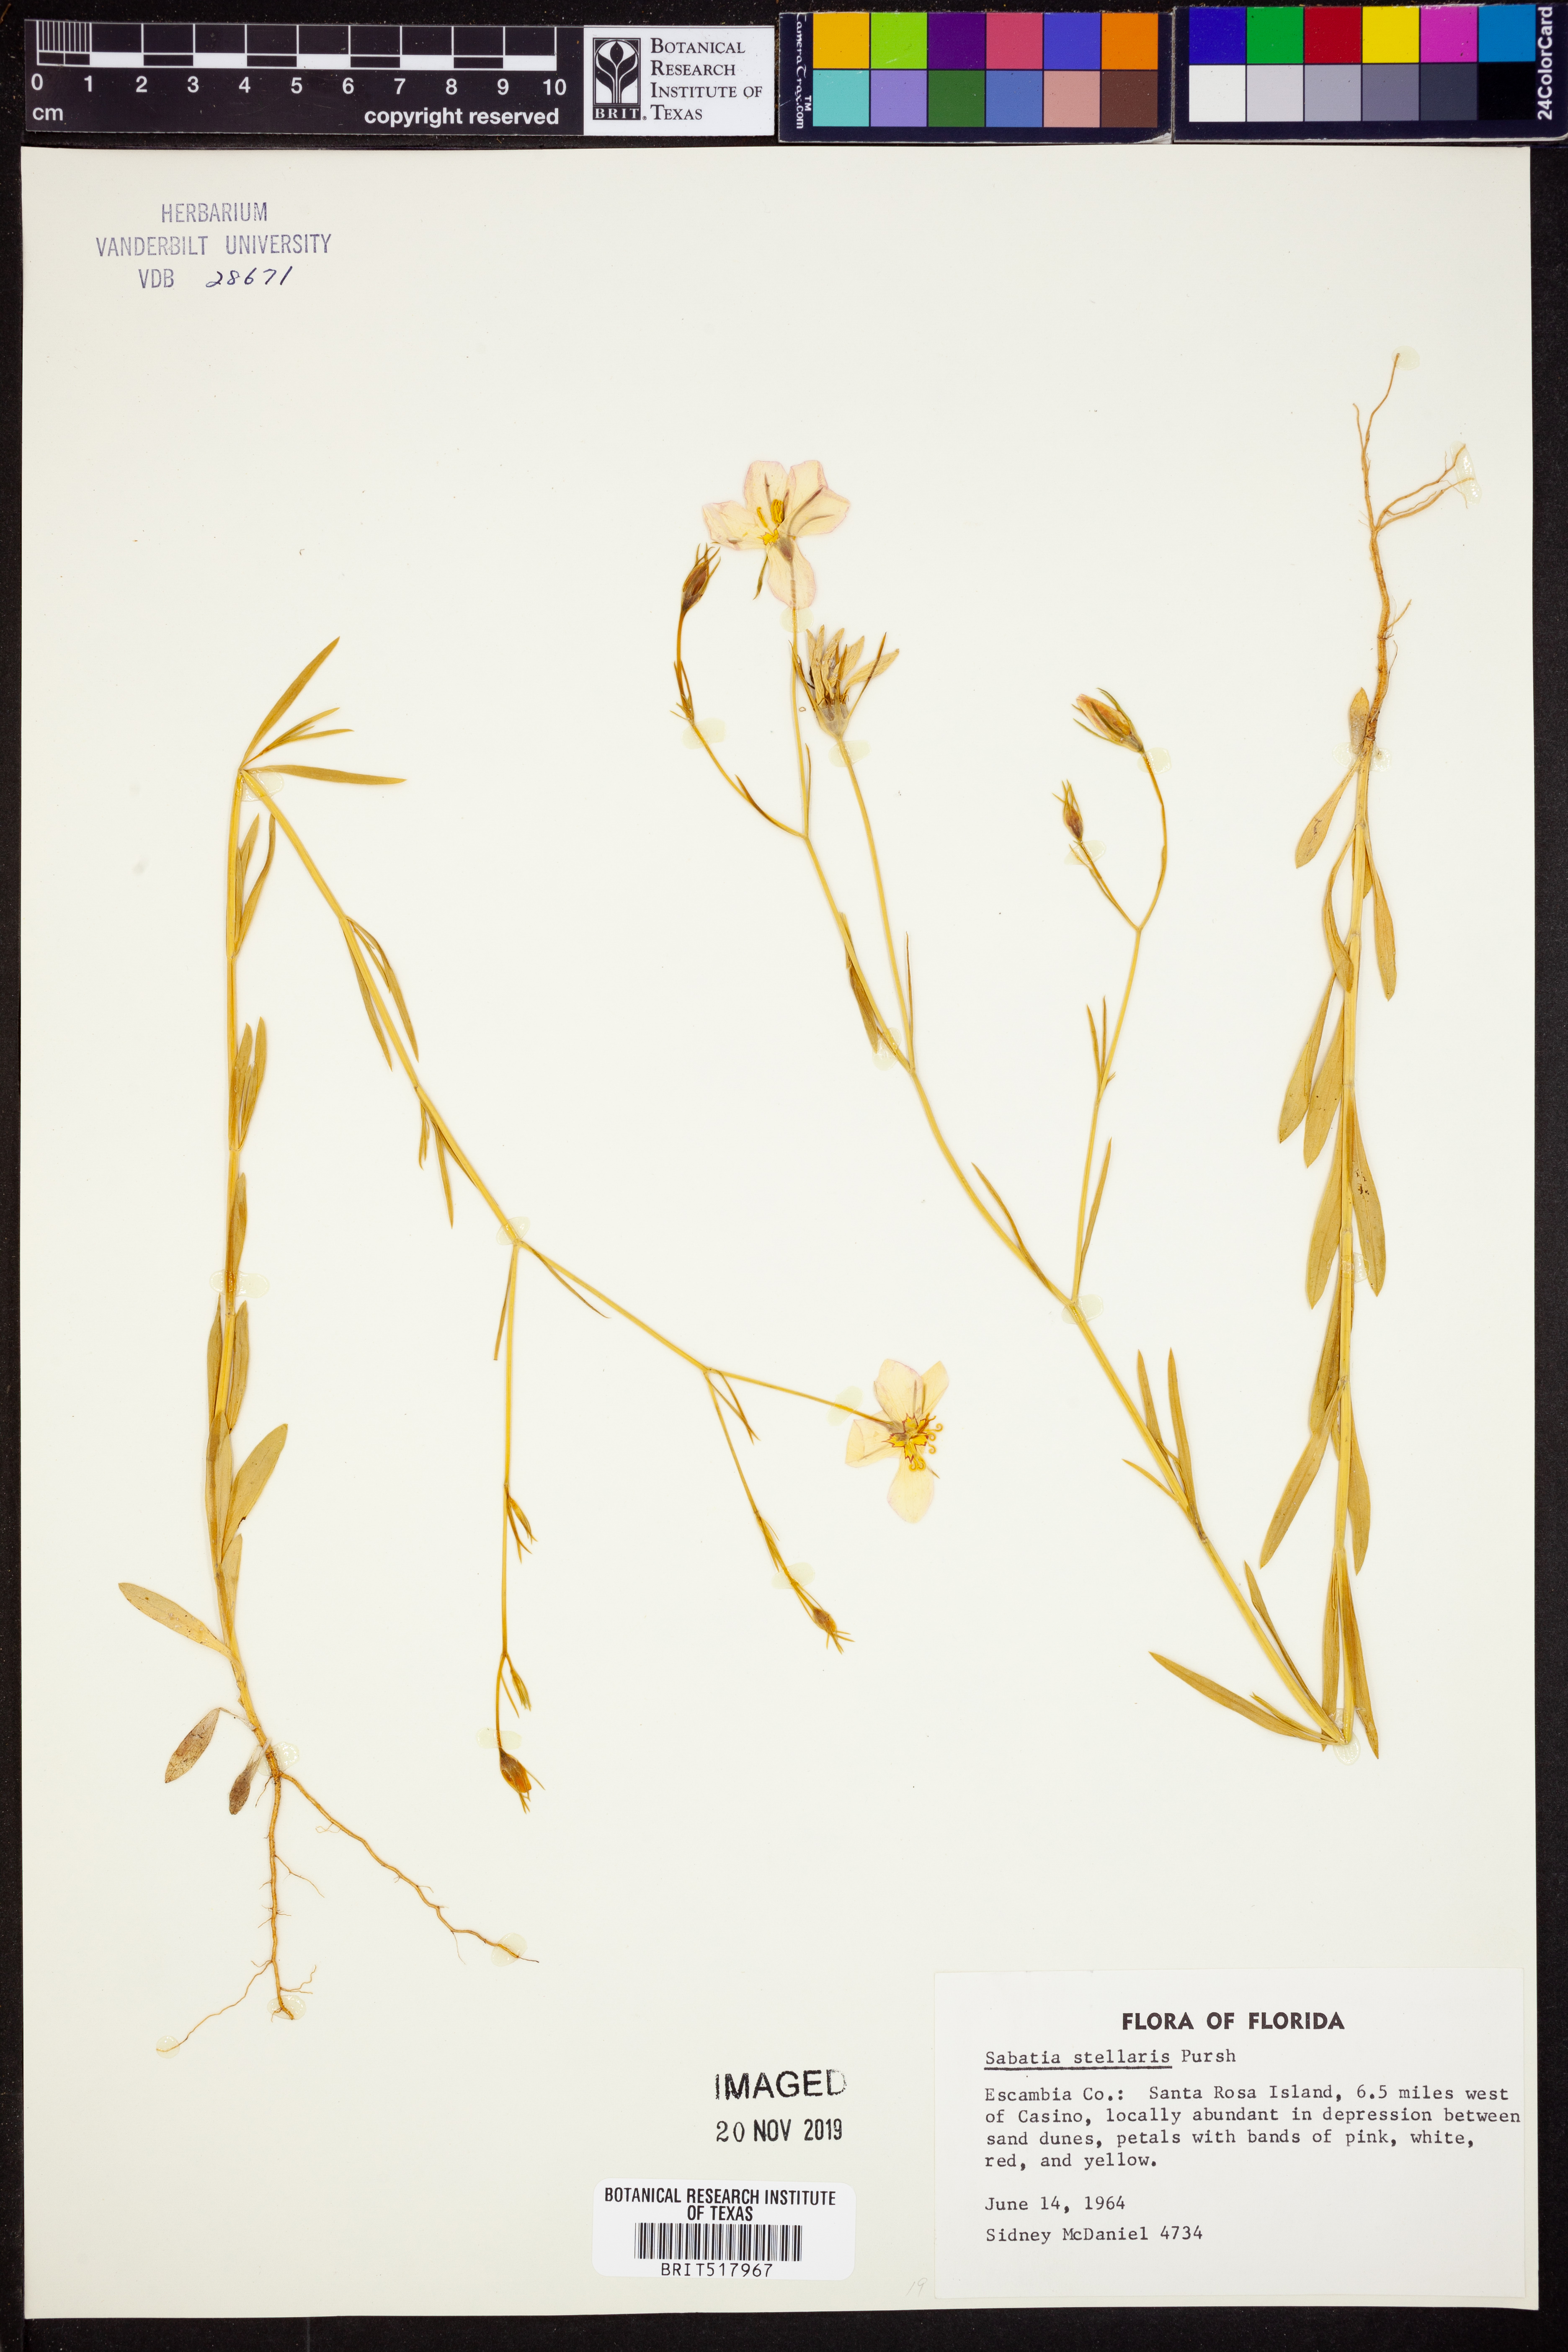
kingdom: Plantae
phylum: Tracheophyta
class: Magnoliopsida
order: Gentianales
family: Gentianaceae
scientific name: Gentianaceae
